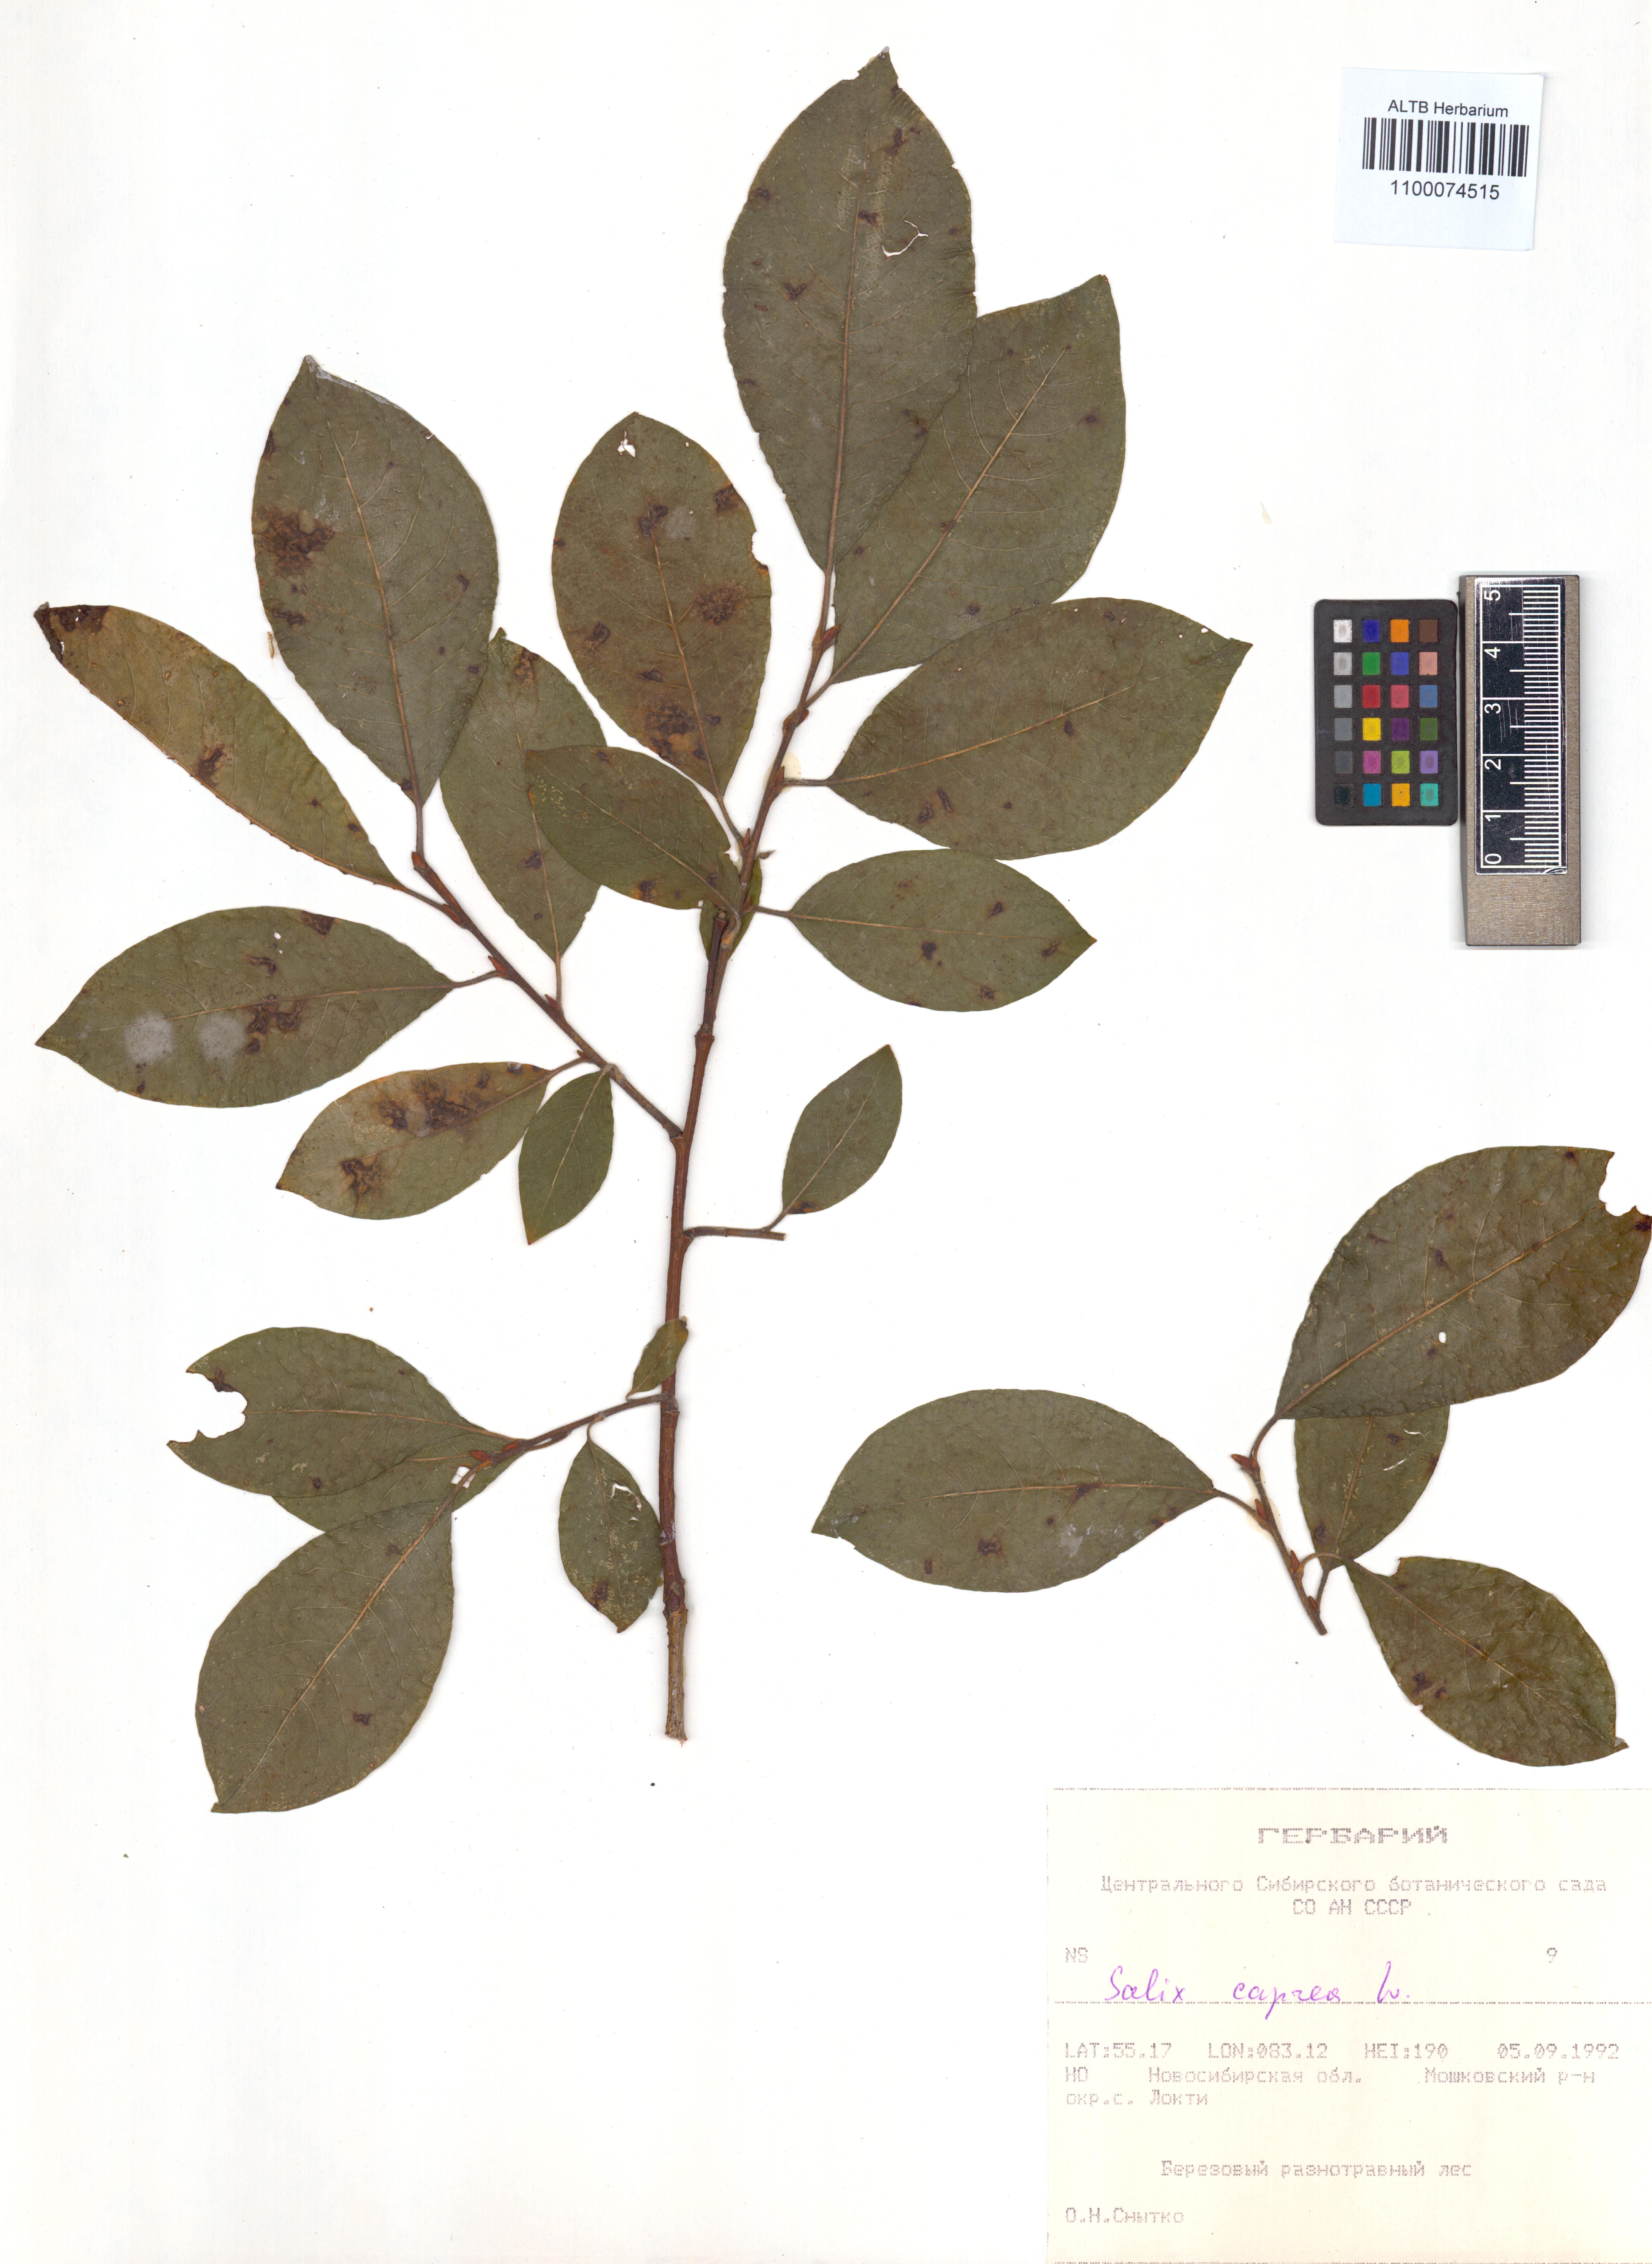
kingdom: Plantae
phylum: Tracheophyta
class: Magnoliopsida
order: Malpighiales
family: Salicaceae
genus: Salix
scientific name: Salix caprea
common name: Goat willow
